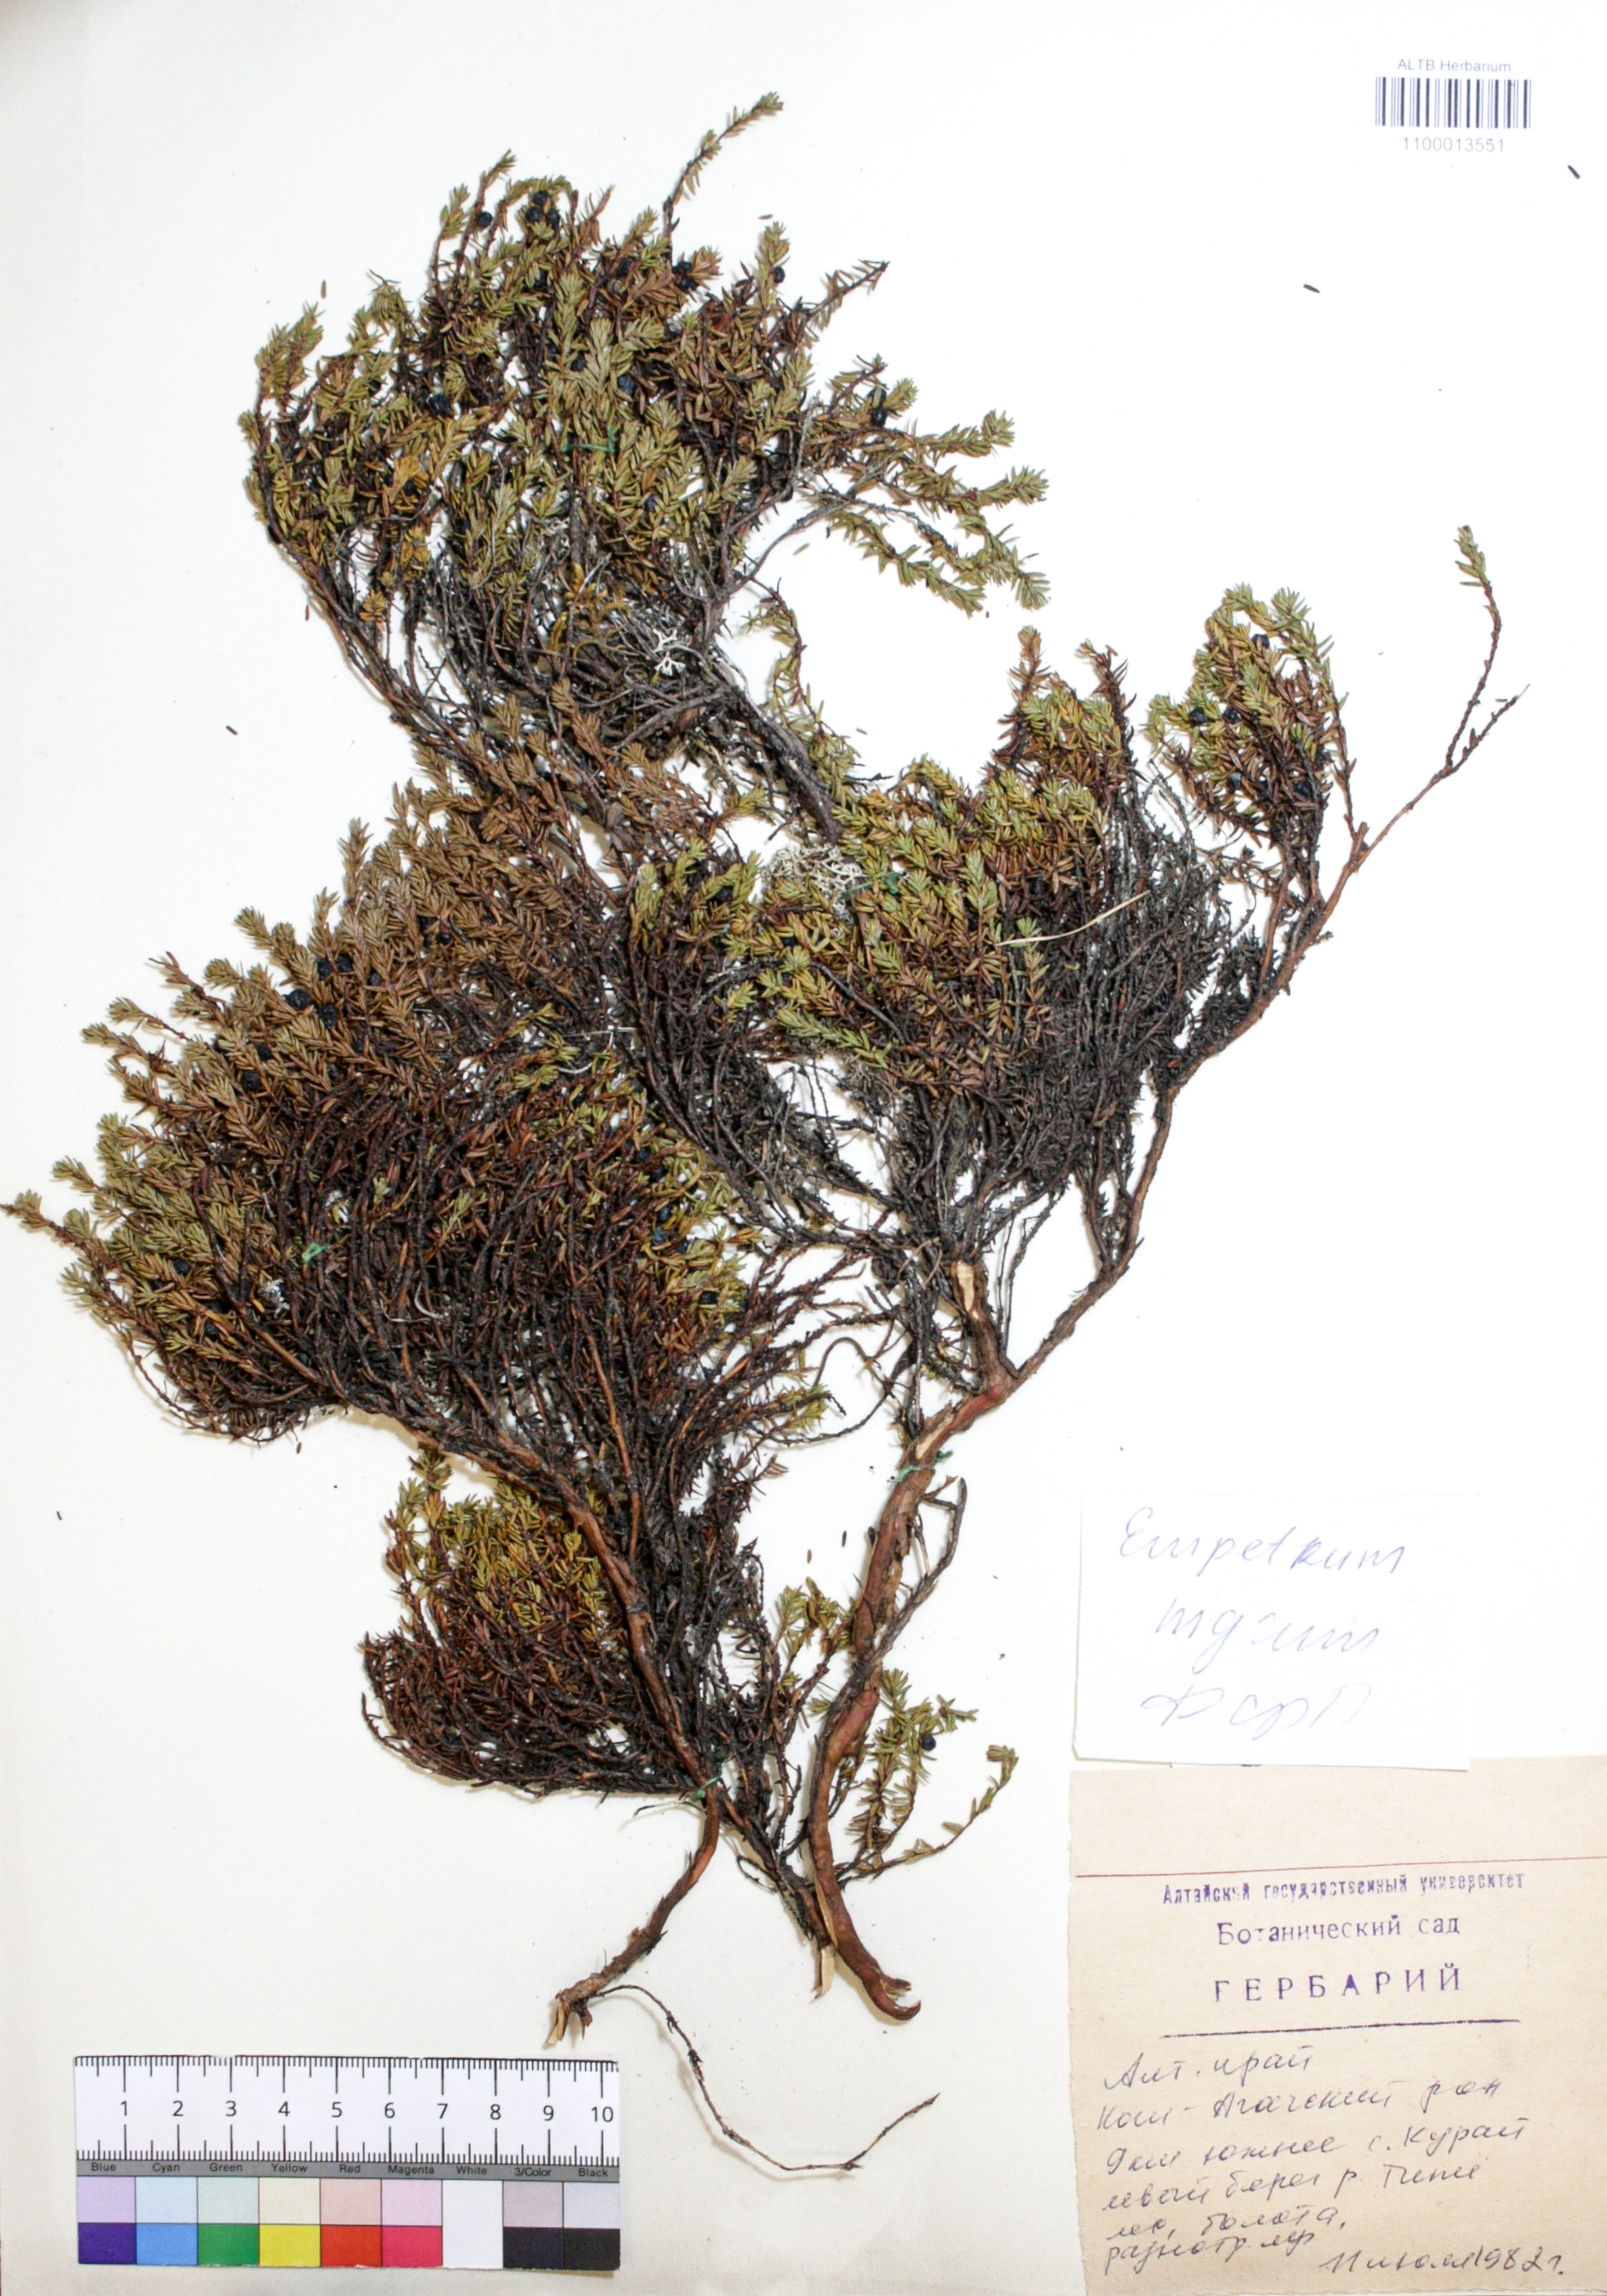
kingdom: Plantae
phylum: Tracheophyta
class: Magnoliopsida
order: Ericales
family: Ericaceae
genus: Empetrum
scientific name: Empetrum nigrum
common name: Black crowberry
